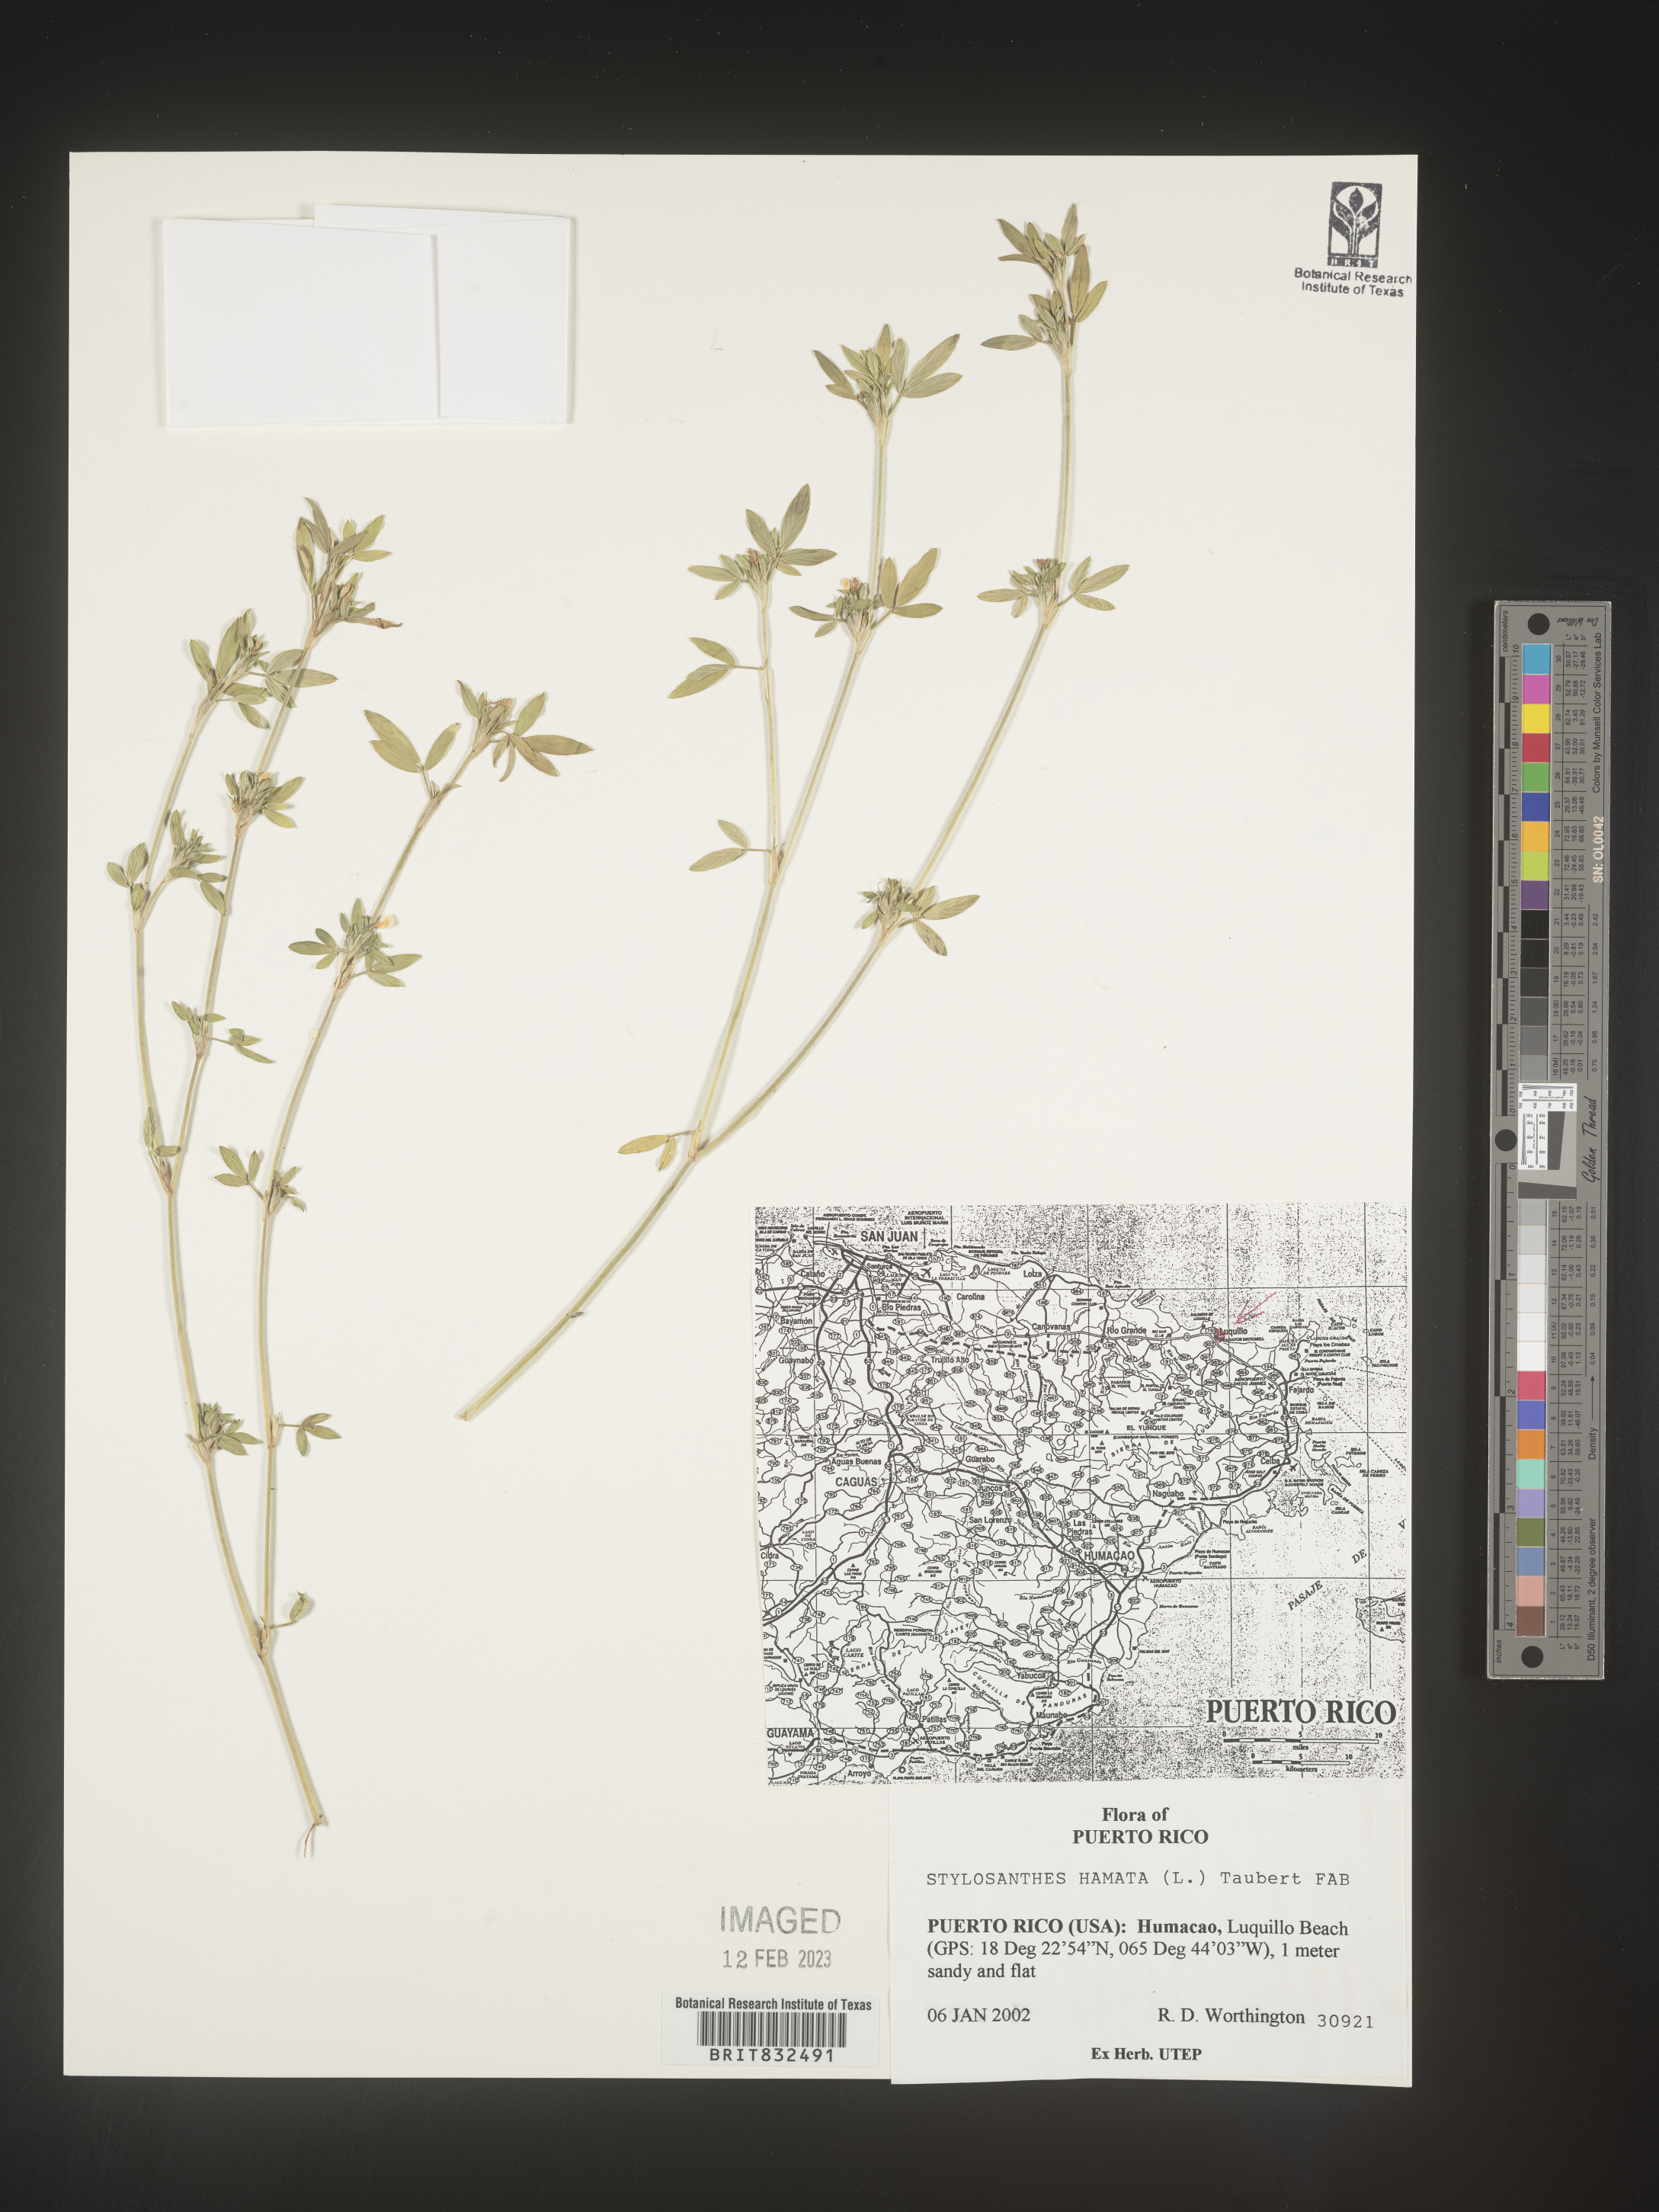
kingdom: Plantae
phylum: Tracheophyta
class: Magnoliopsida
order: Fabales
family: Fabaceae
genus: Stylosanthes
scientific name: Stylosanthes
